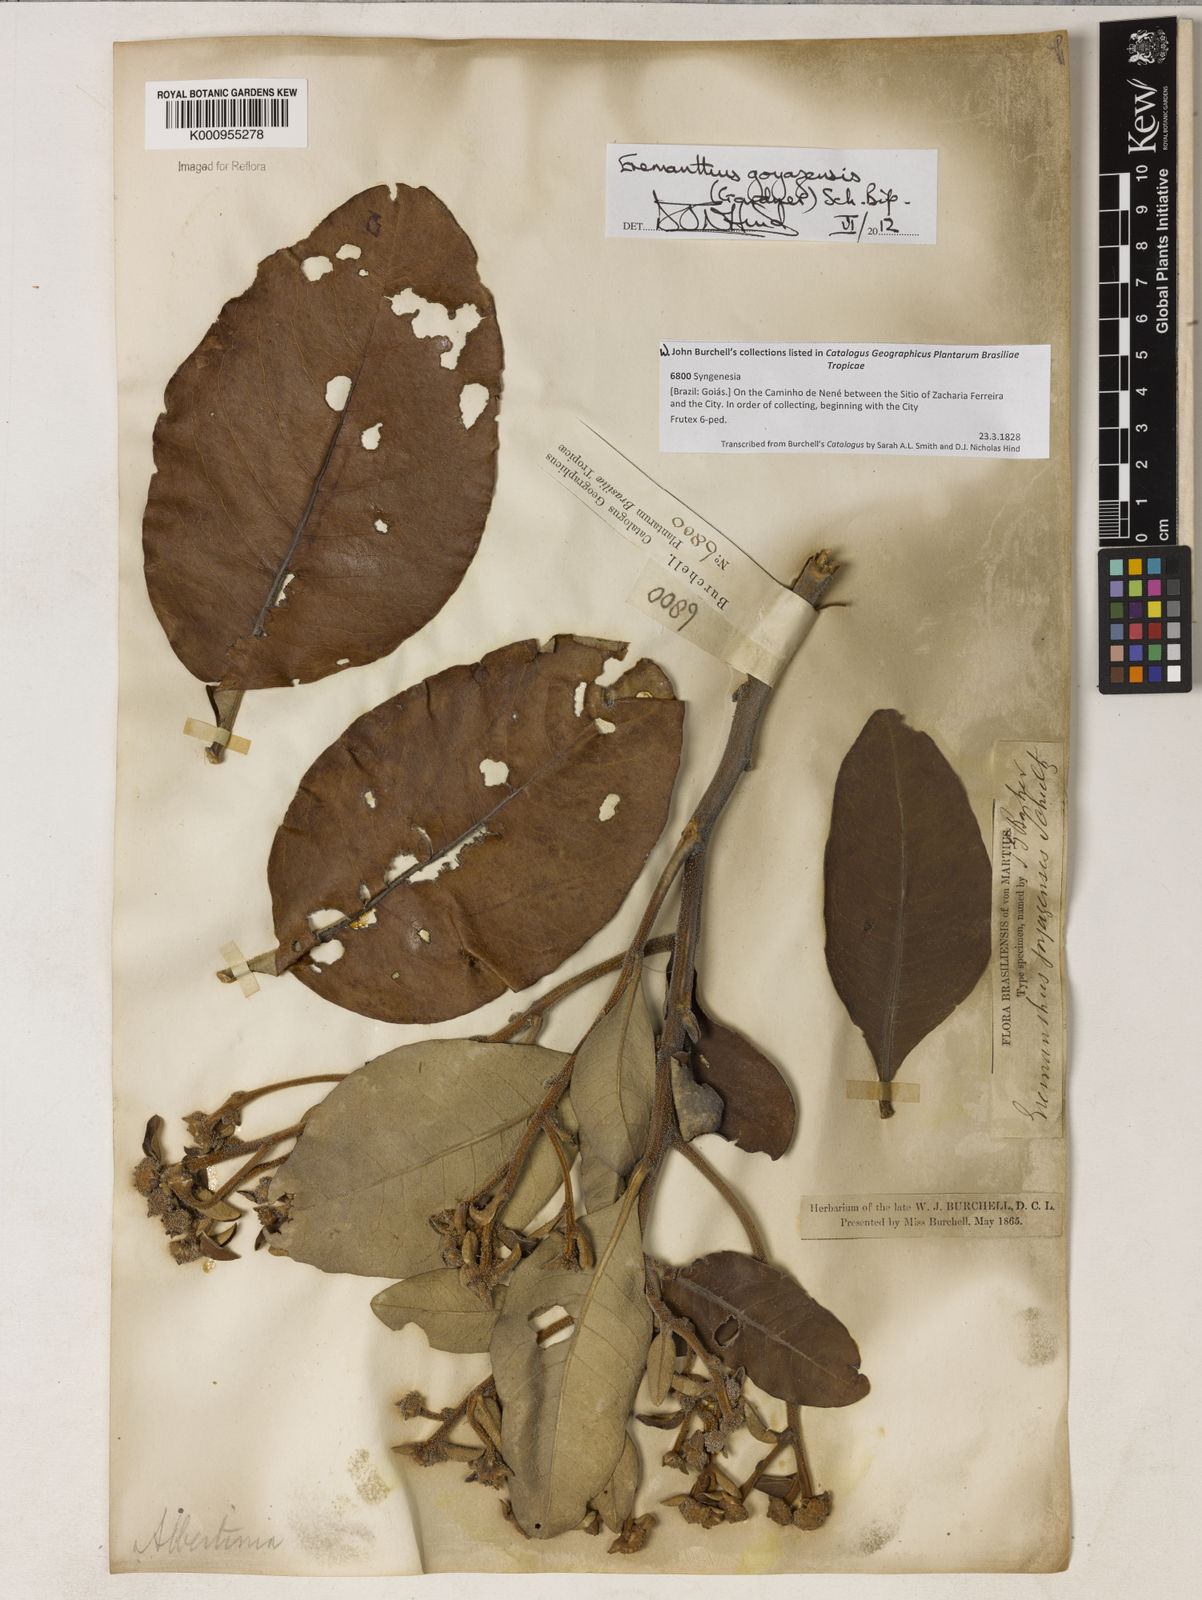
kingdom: Plantae
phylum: Tracheophyta
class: Magnoliopsida
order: Asterales
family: Asteraceae
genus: Eremanthus
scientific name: Eremanthus goyazensis
